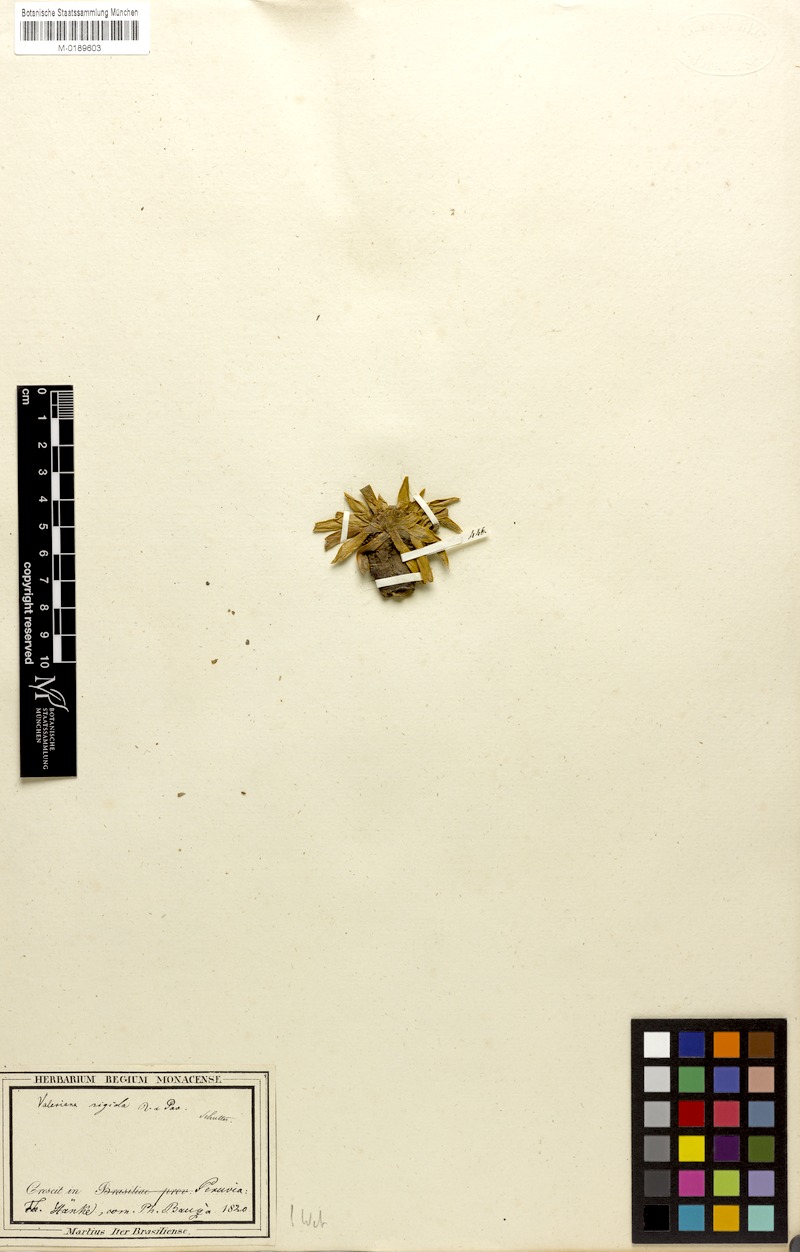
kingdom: Plantae
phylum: Tracheophyta
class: Magnoliopsida
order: Dipsacales
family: Caprifoliaceae
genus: Valeriana
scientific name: Valeriana rigida
